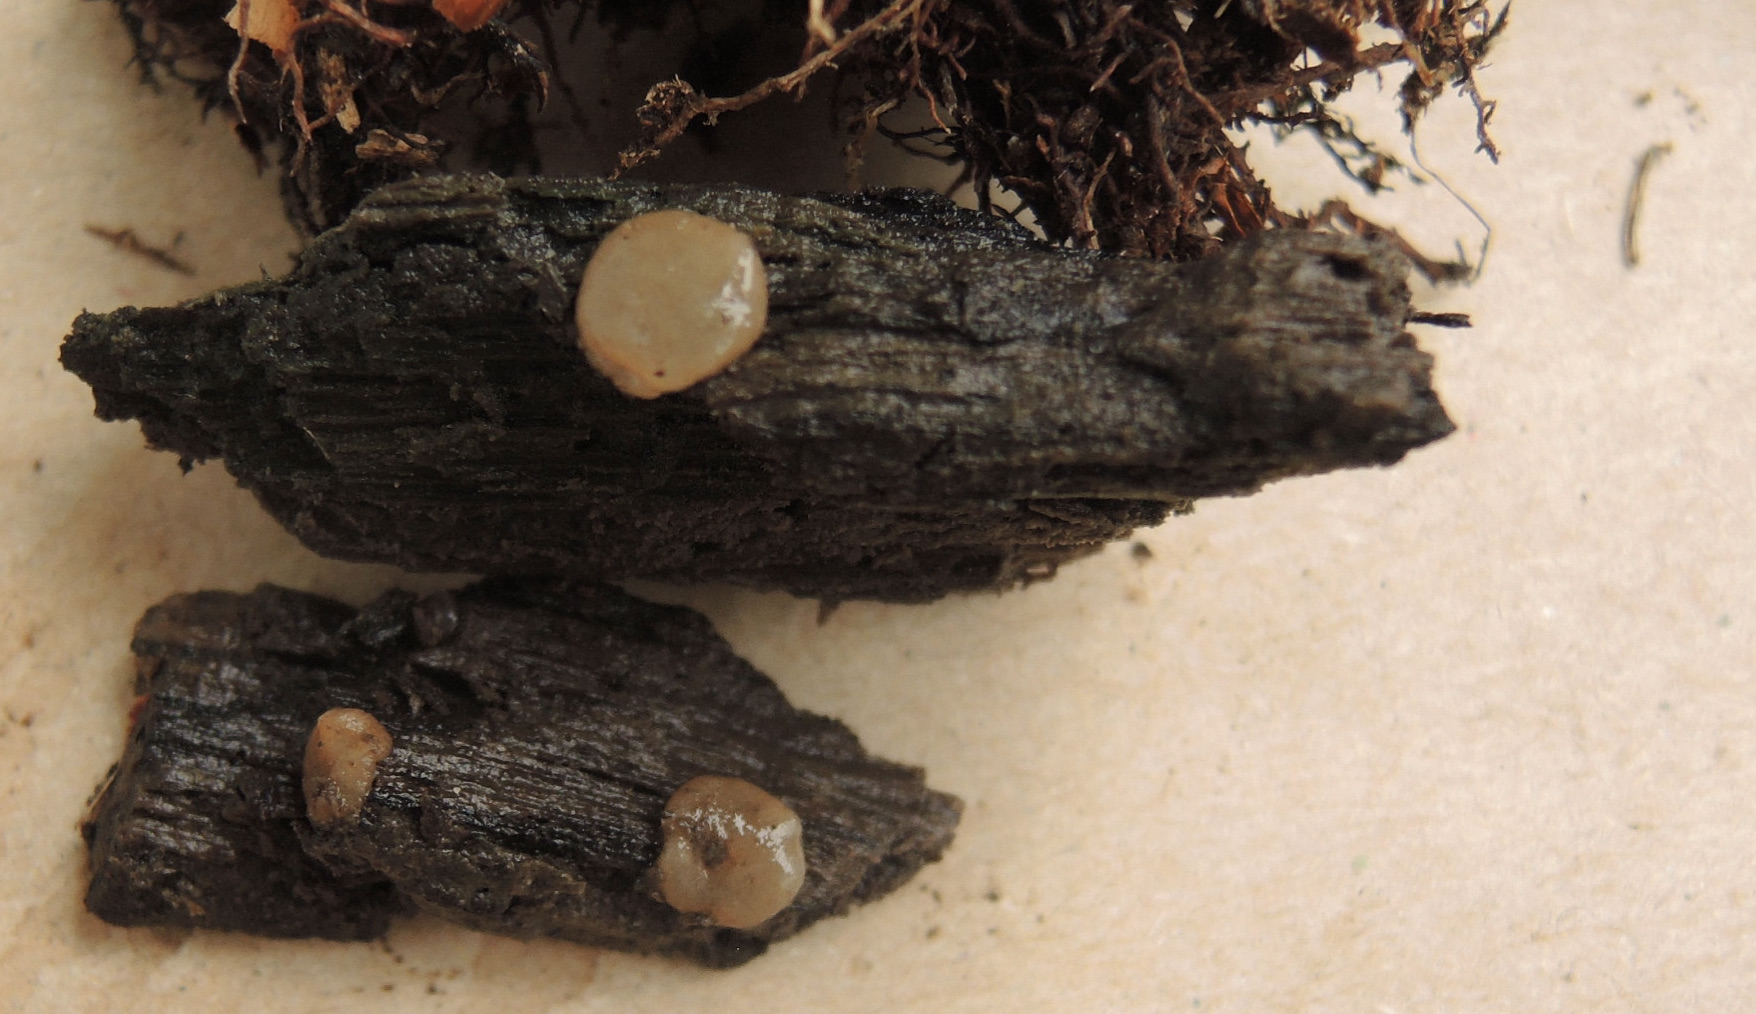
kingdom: Fungi
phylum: Ascomycota
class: Pezizomycetes
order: Pezizales
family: Pezizaceae
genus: Adelphella
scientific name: Adelphella babingtonii
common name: almindelig bækbæger
